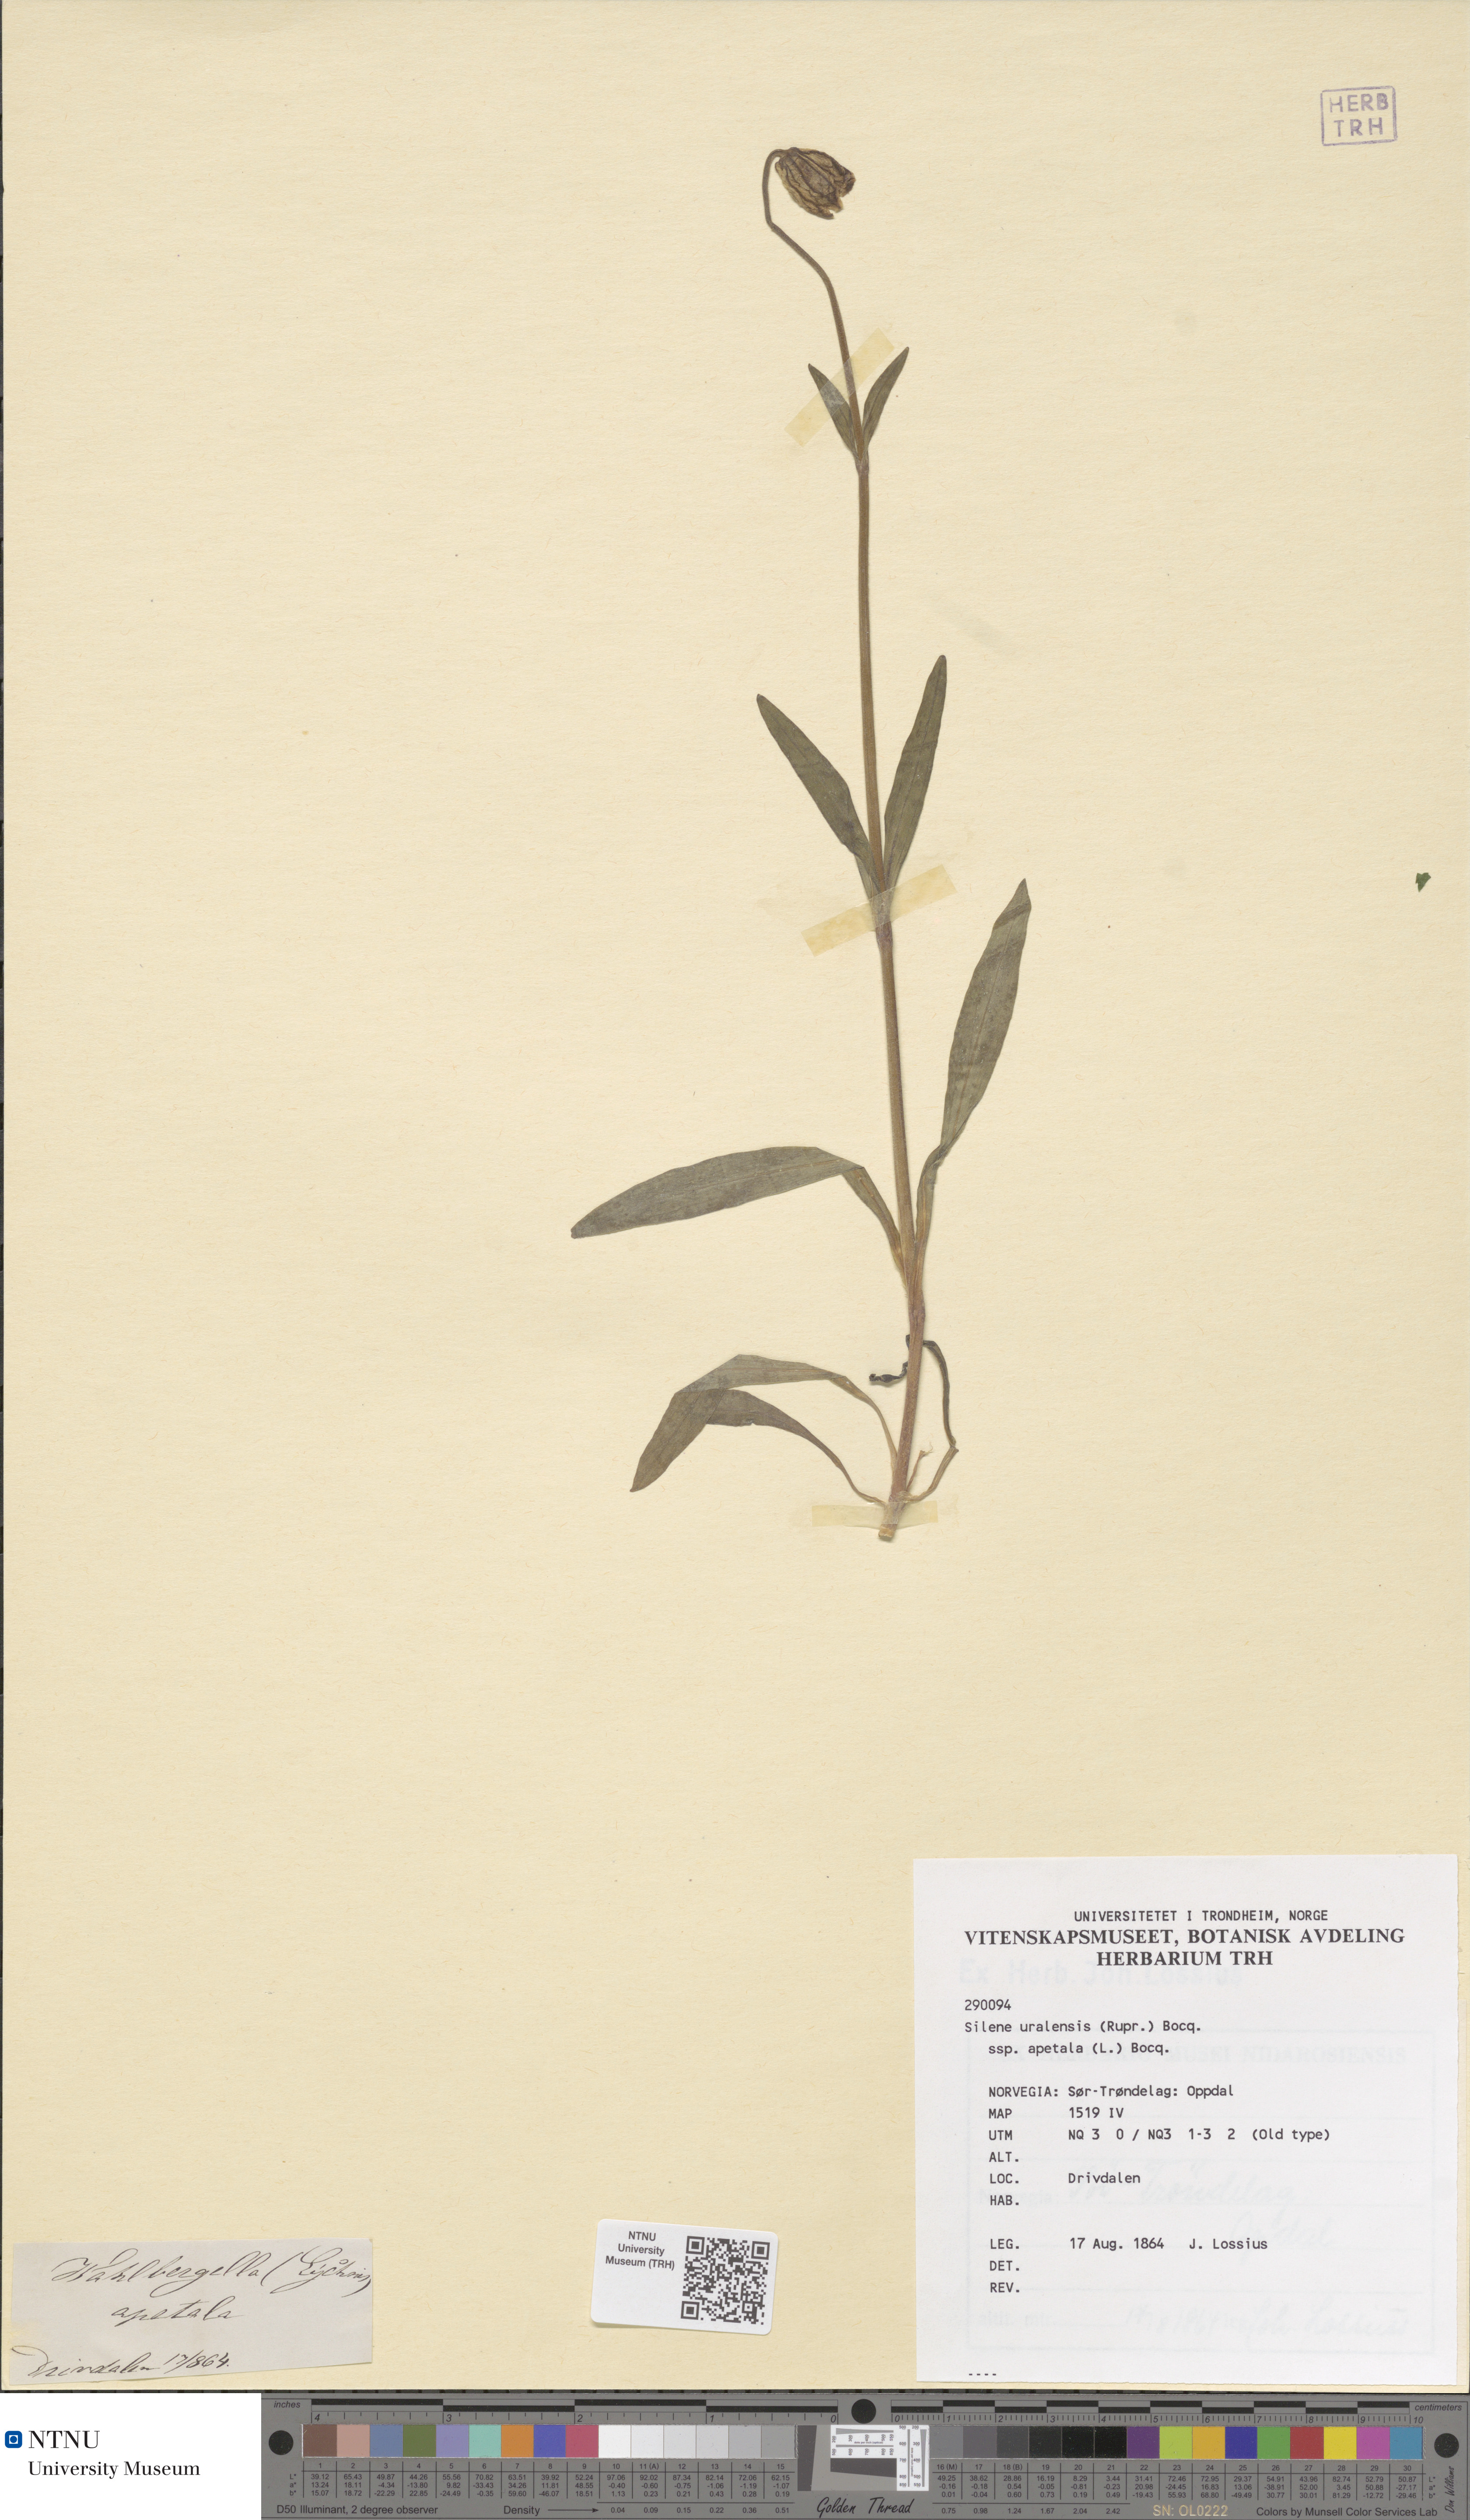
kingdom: Plantae
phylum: Tracheophyta
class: Magnoliopsida
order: Caryophyllales
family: Caryophyllaceae
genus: Silene
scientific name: Silene wahlbergella
